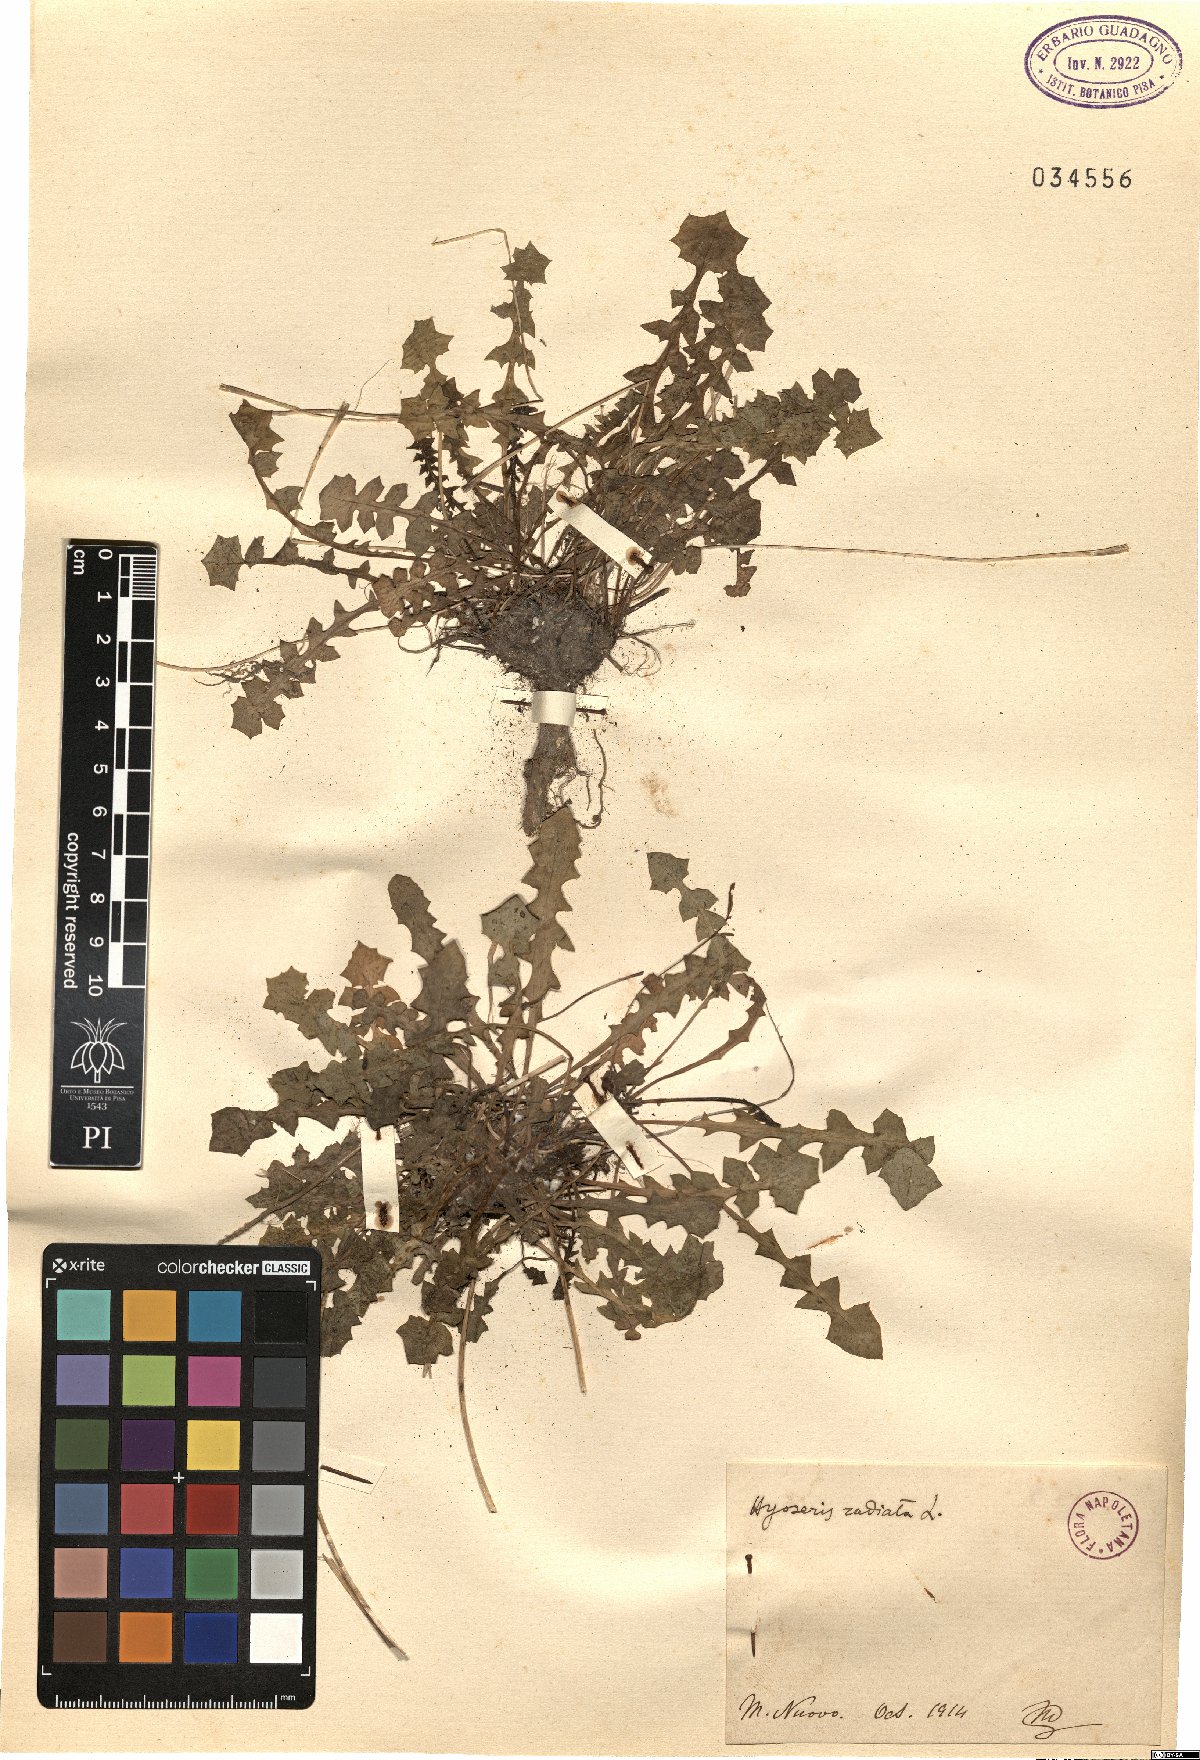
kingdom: Plantae
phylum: Tracheophyta
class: Magnoliopsida
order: Asterales
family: Asteraceae
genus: Hyoseris
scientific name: Hyoseris radiata
